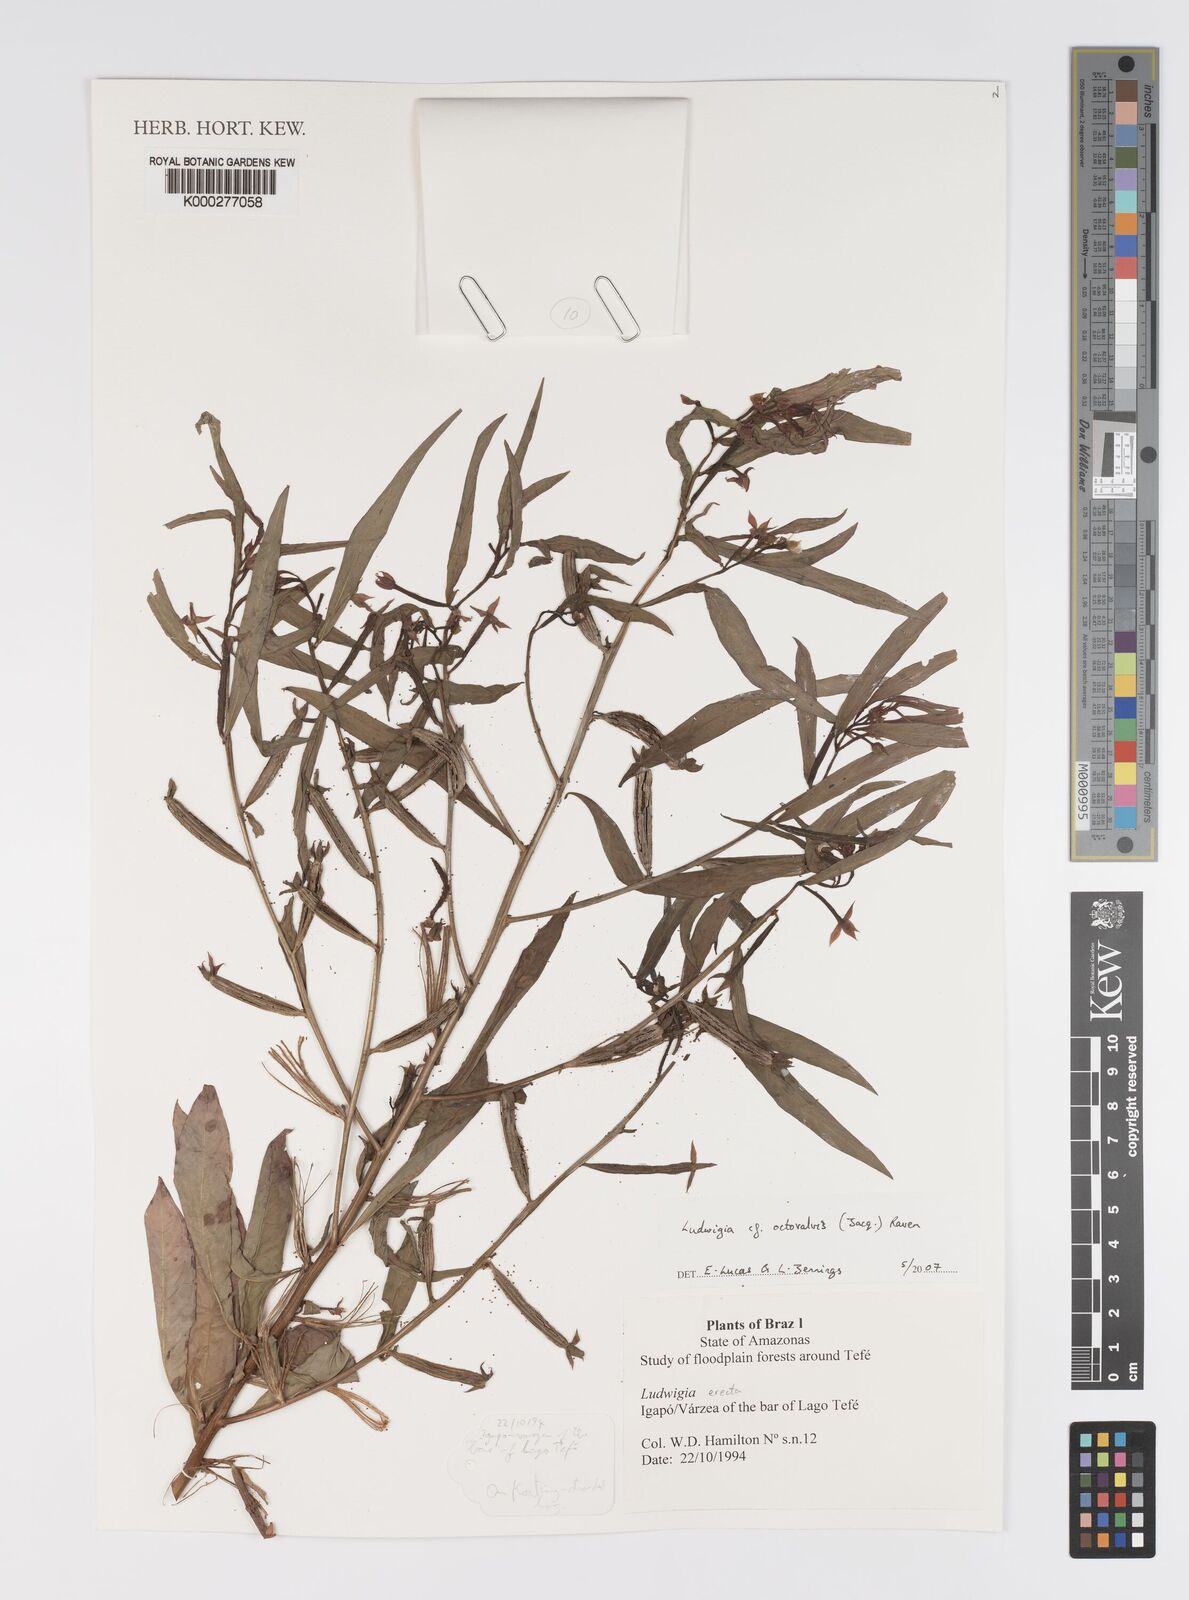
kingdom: Plantae
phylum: Tracheophyta
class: Magnoliopsida
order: Myrtales
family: Onagraceae
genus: Ludwigia
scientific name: Ludwigia octovalvis
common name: Water-primrose
